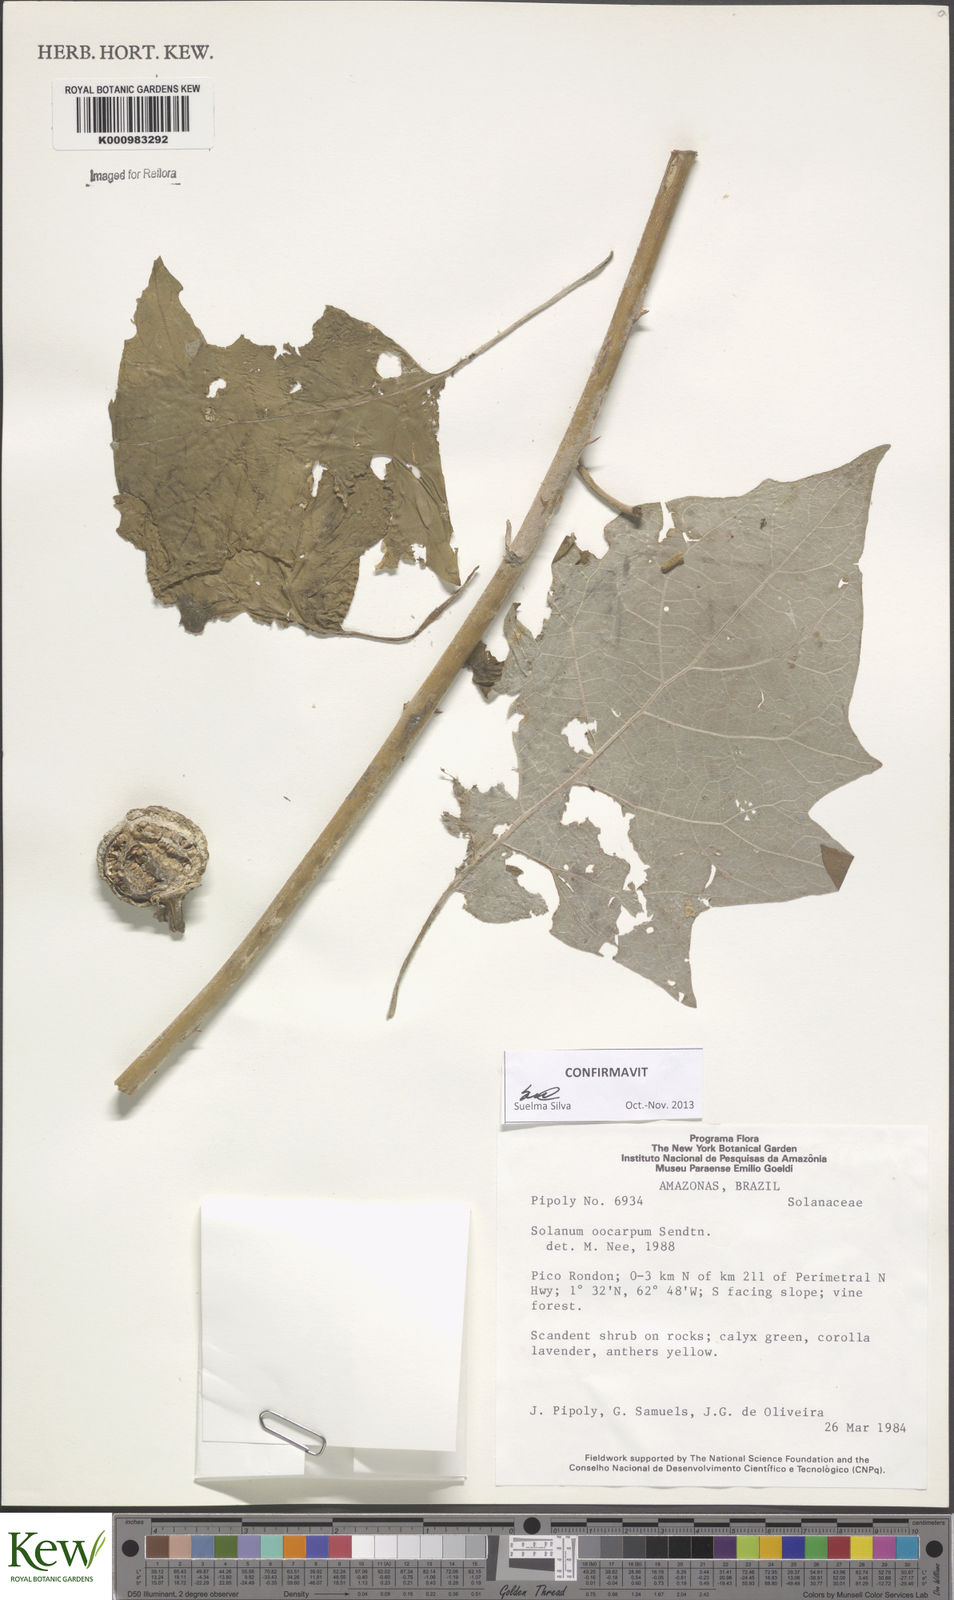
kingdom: Plantae
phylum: Tracheophyta
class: Magnoliopsida
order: Solanales
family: Solanaceae
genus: Solanum
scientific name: Solanum oocarpum
